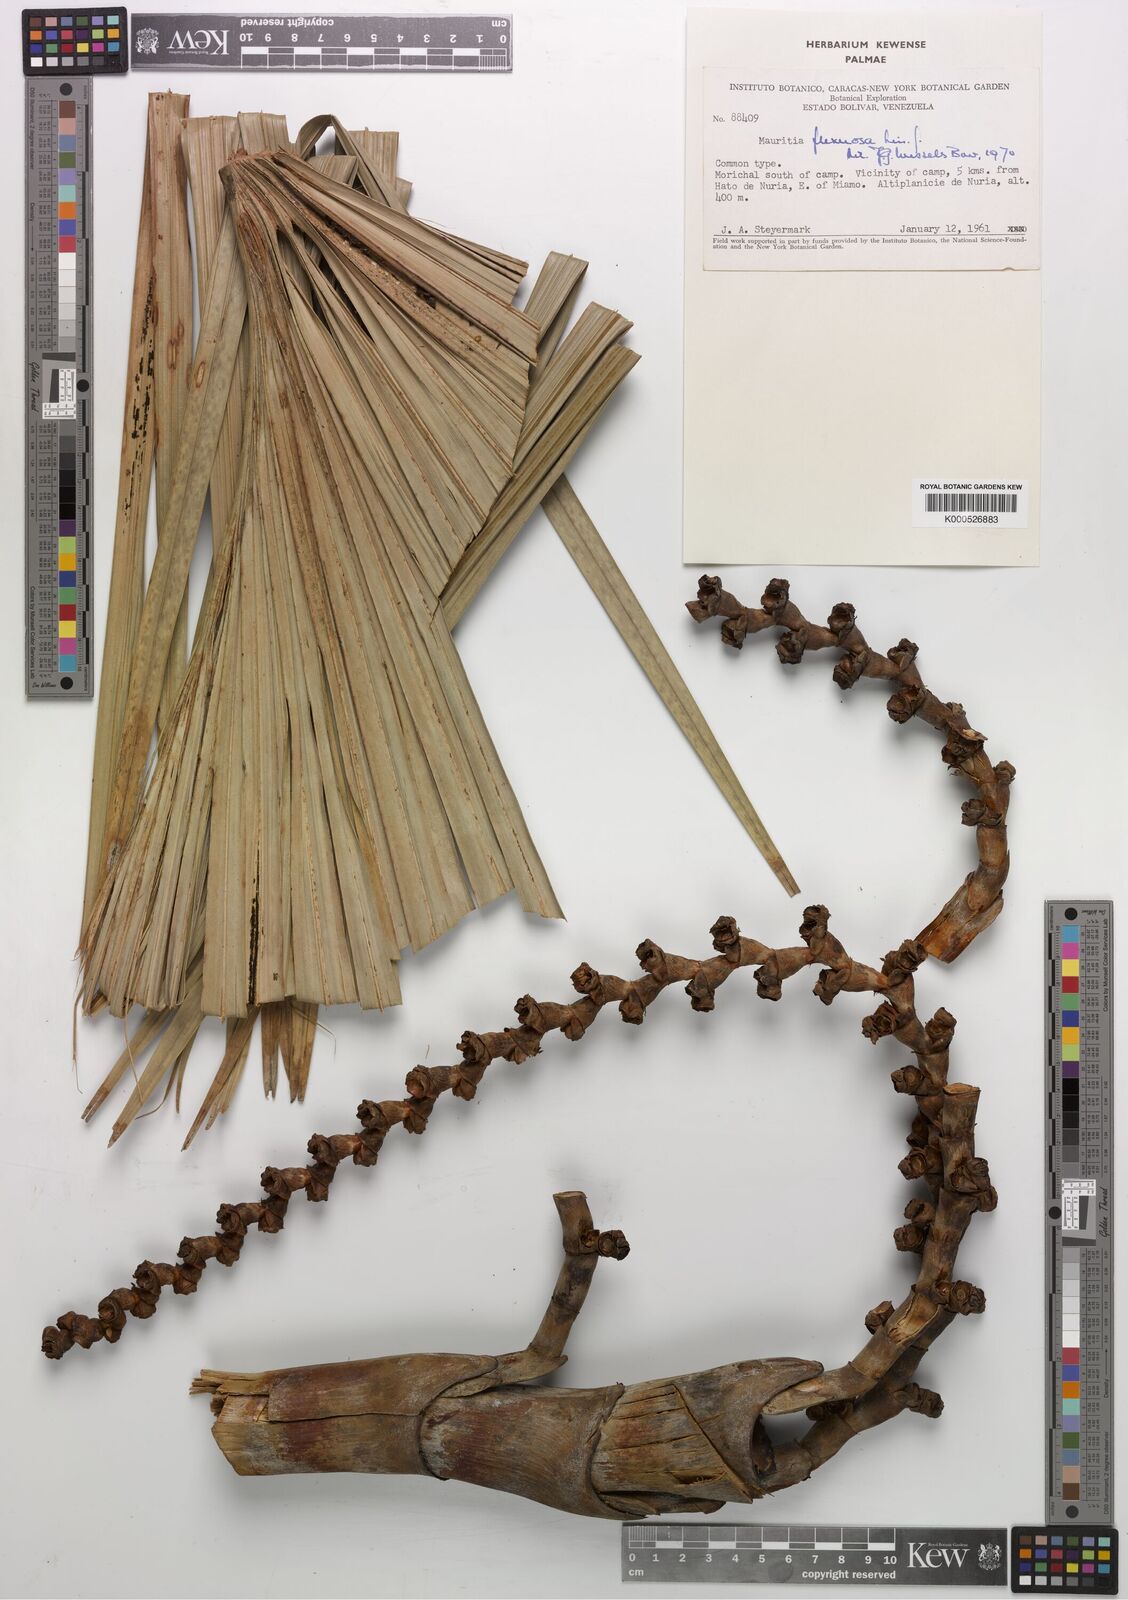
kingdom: Plantae
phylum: Tracheophyta
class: Liliopsida
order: Arecales
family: Arecaceae
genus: Mauritia
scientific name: Mauritia flexuosa
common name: Tree-of-life
